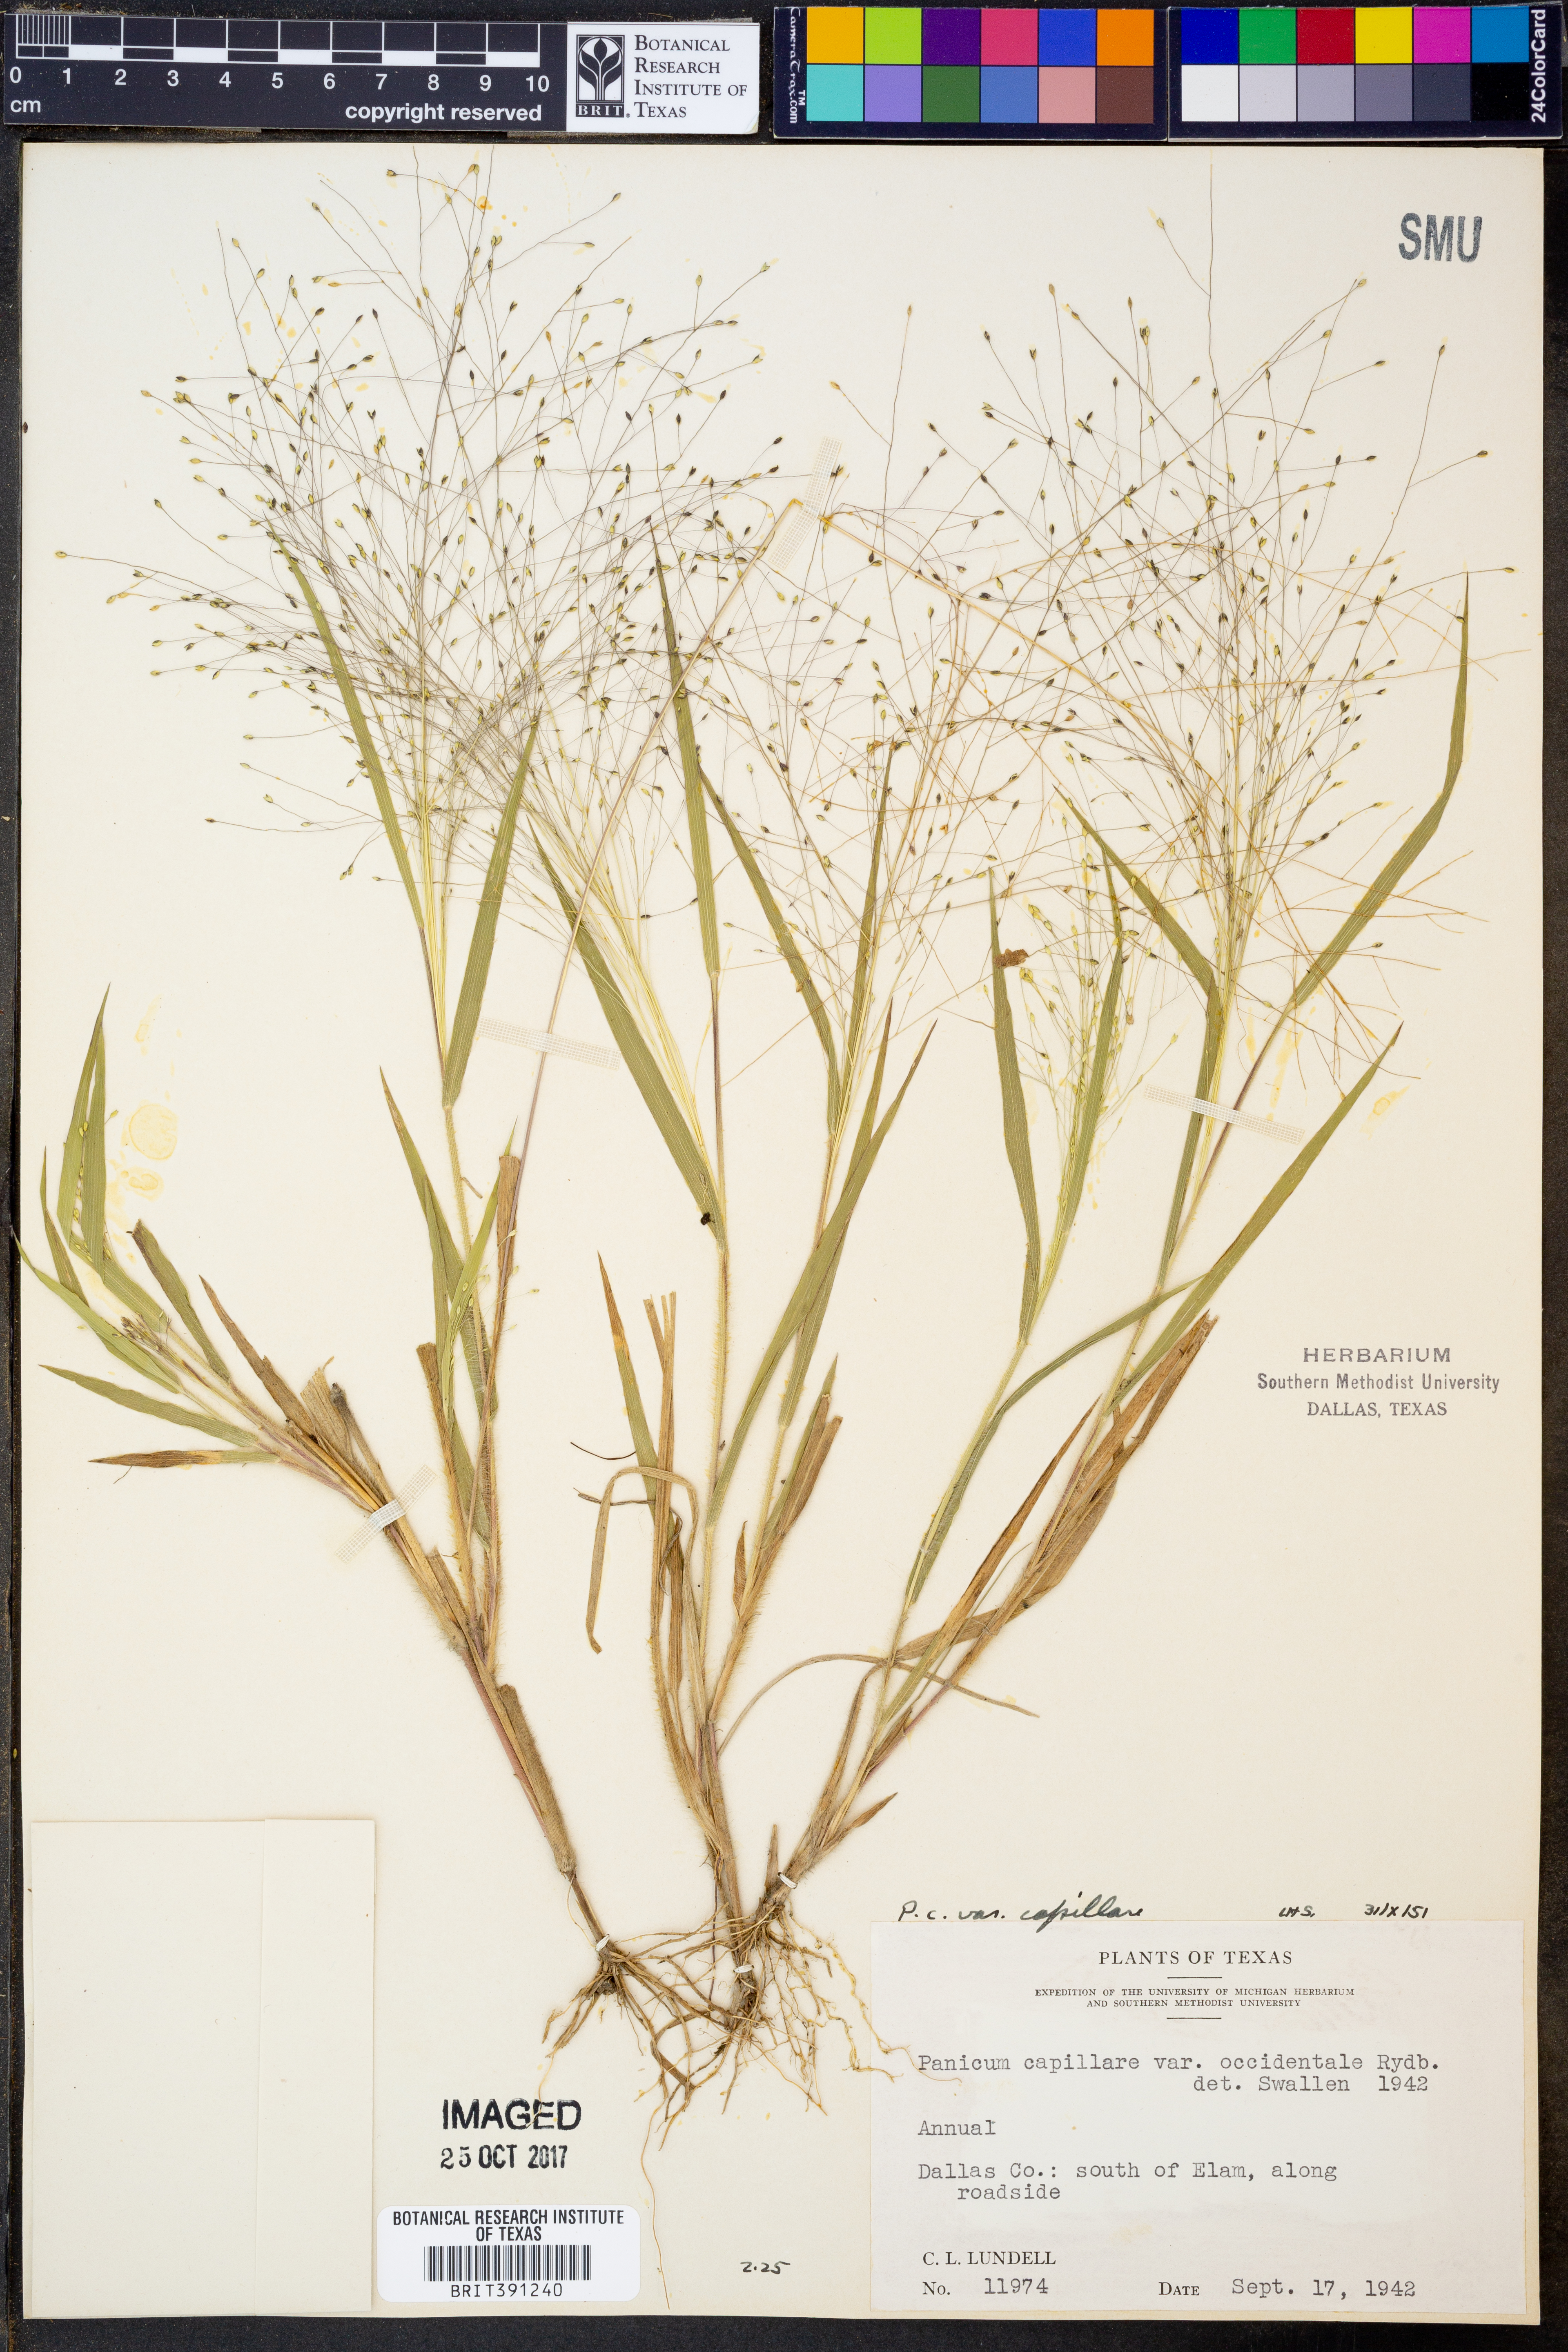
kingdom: Plantae
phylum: Tracheophyta
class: Liliopsida
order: Poales
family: Poaceae
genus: Panicum
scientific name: Panicum capillare
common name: Witch-grass
